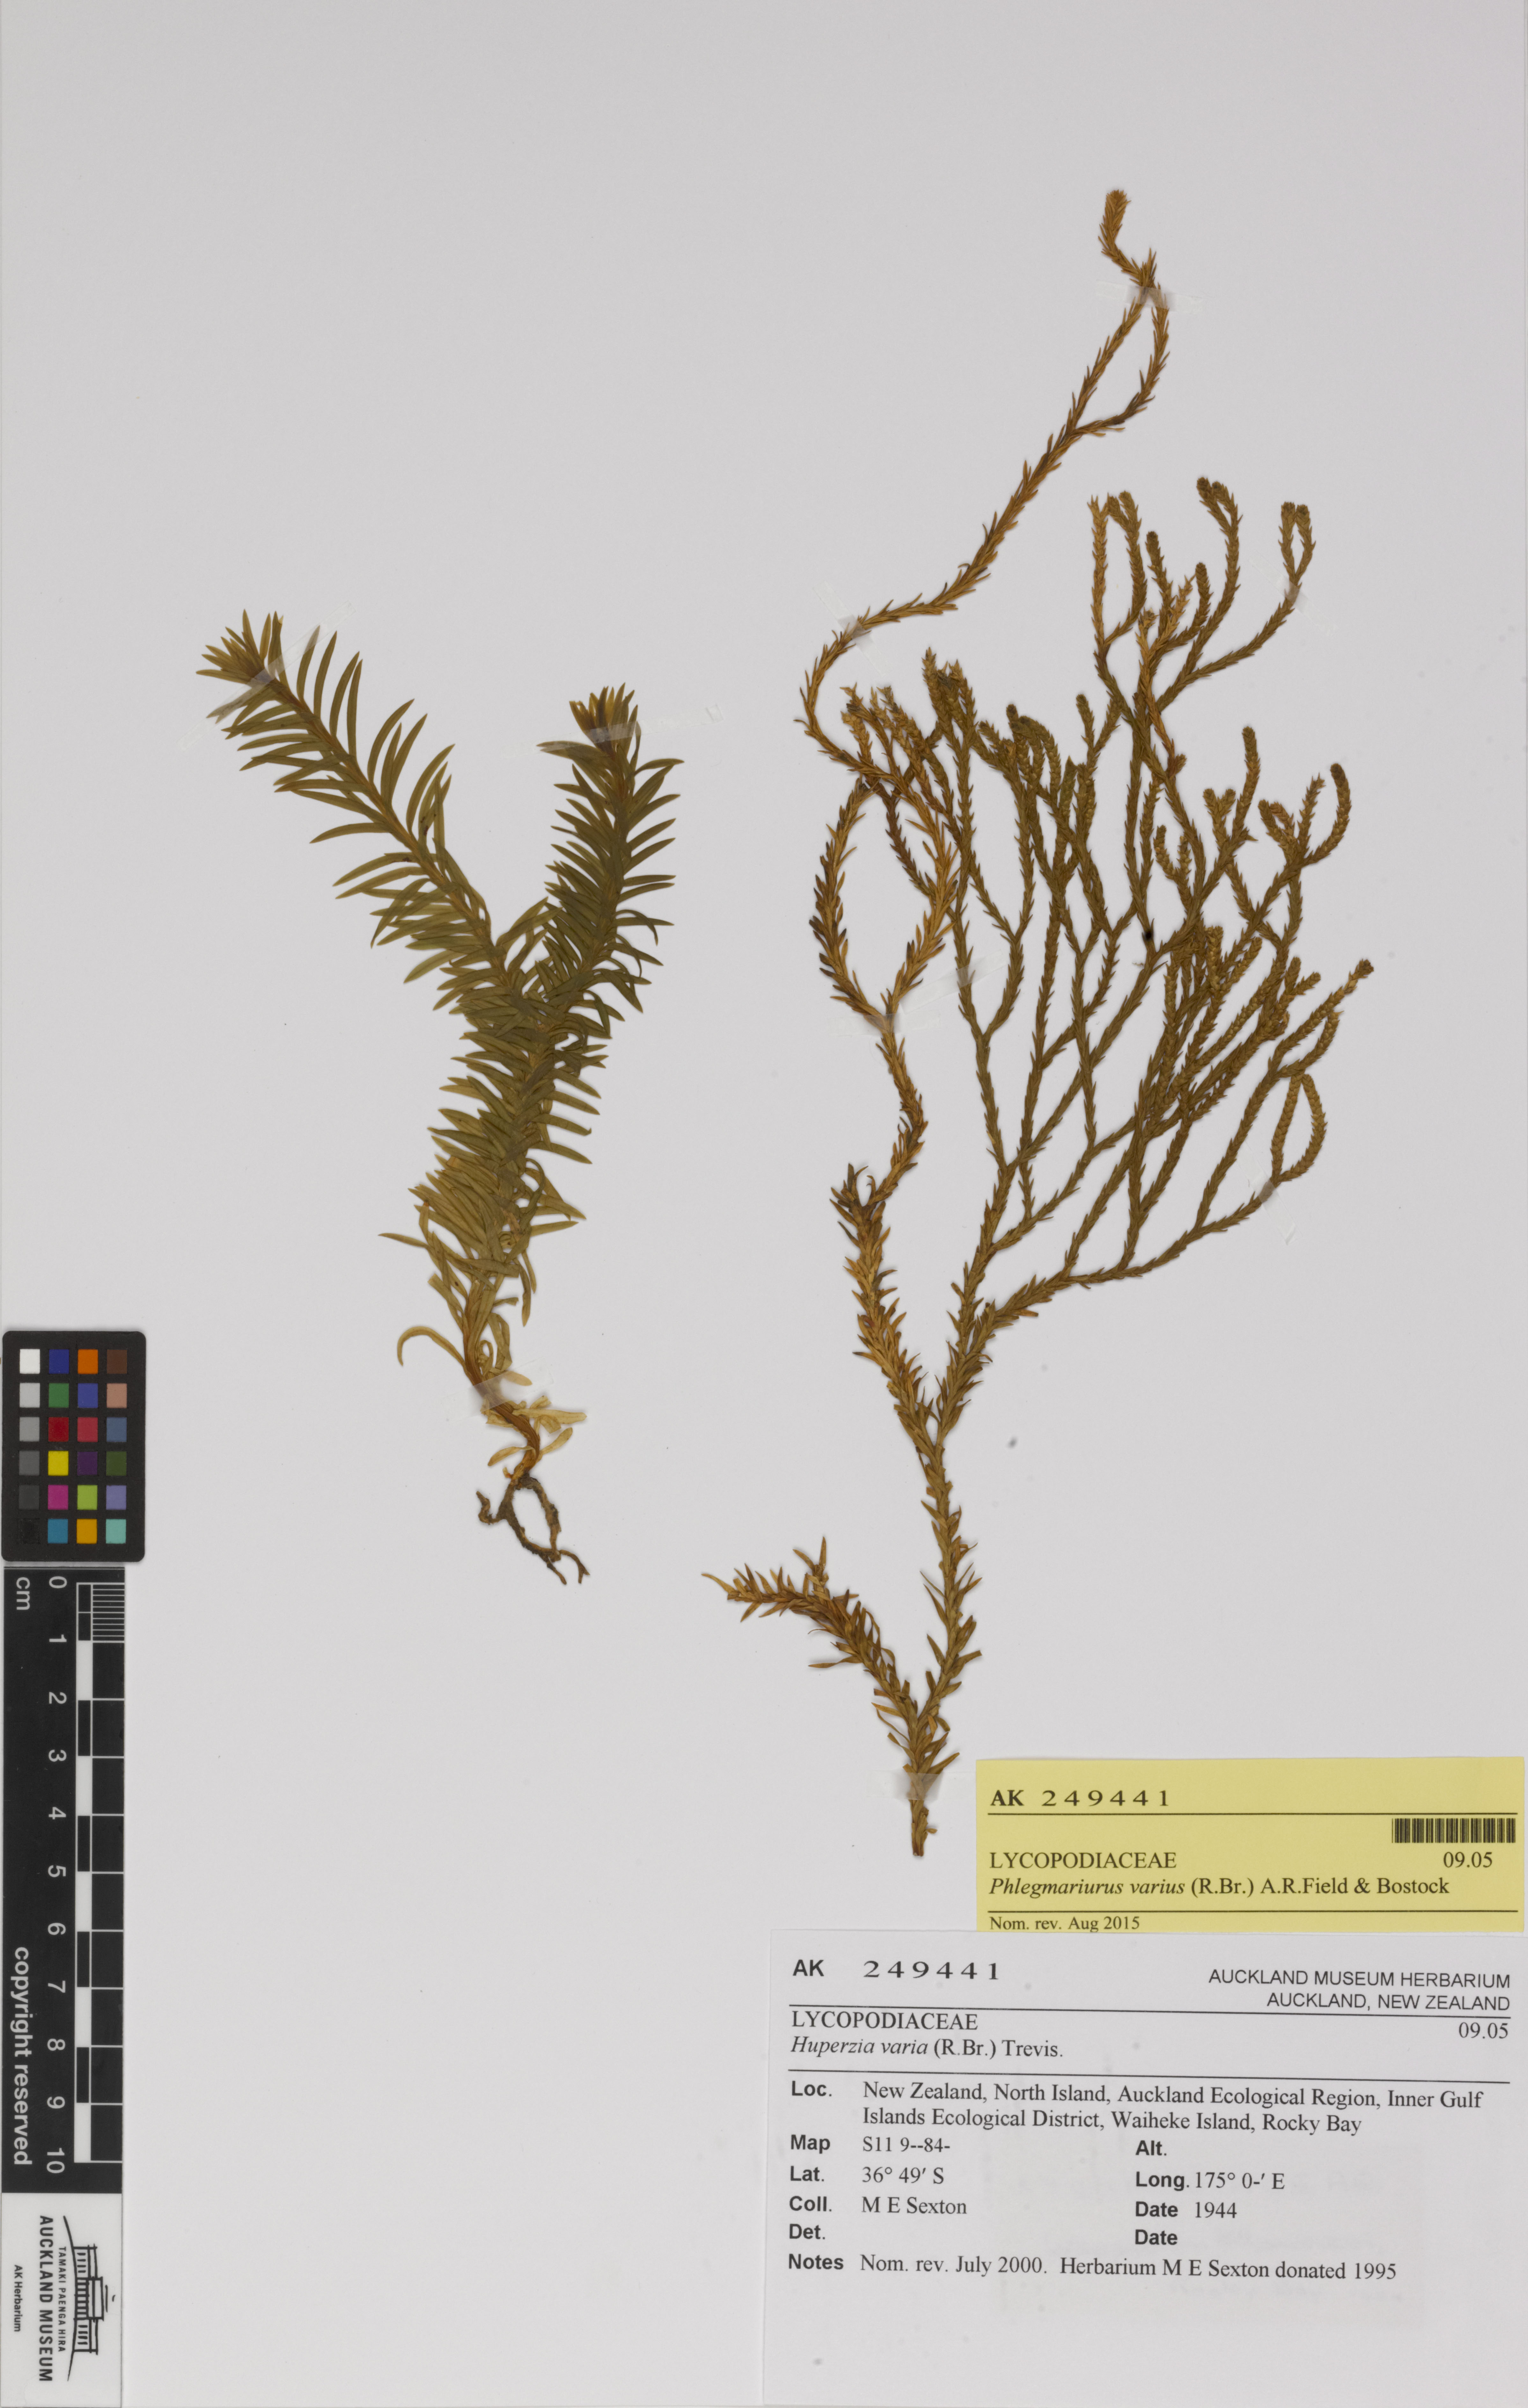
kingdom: Plantae
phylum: Tracheophyta
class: Lycopodiopsida
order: Lycopodiales
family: Lycopodiaceae
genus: Phlegmariurus
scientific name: Phlegmariurus billardierei
